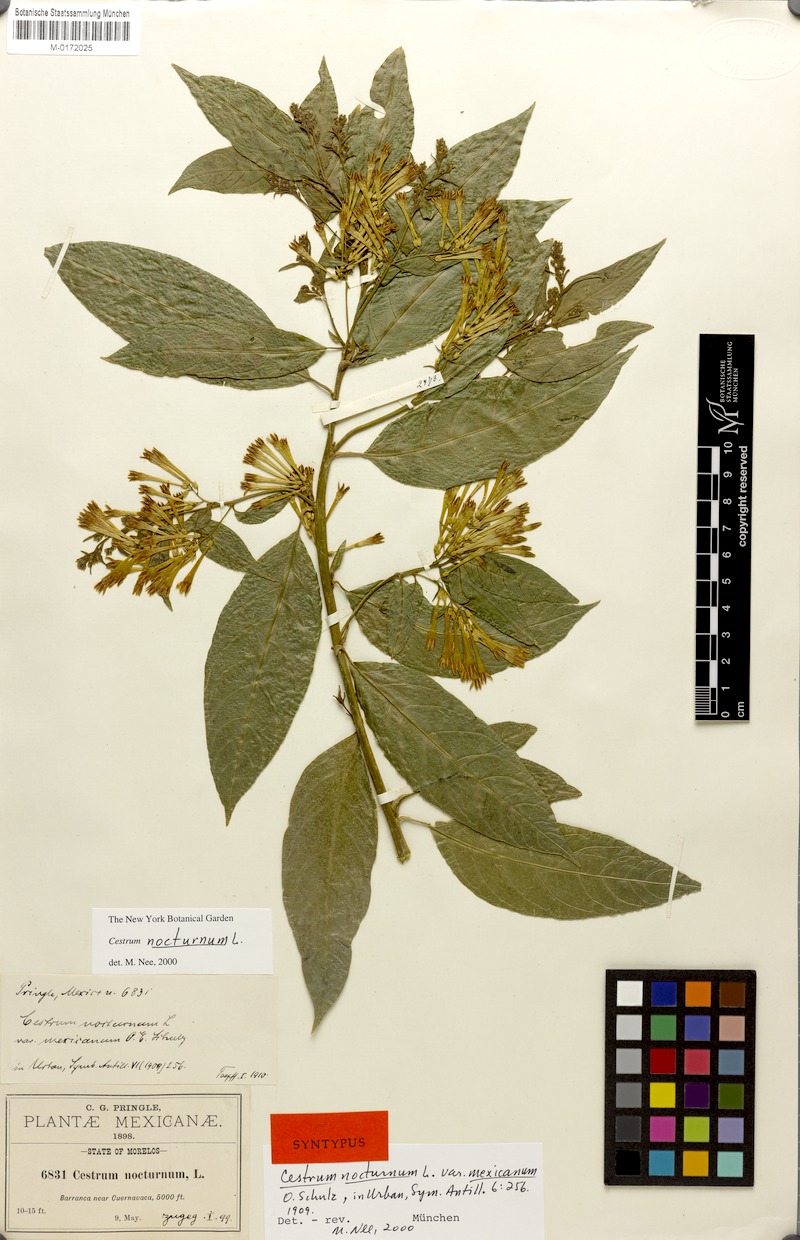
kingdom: Plantae
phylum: Tracheophyta
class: Magnoliopsida
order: Solanales
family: Solanaceae
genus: Cestrum
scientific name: Cestrum nocturnum
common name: Night jessamine
